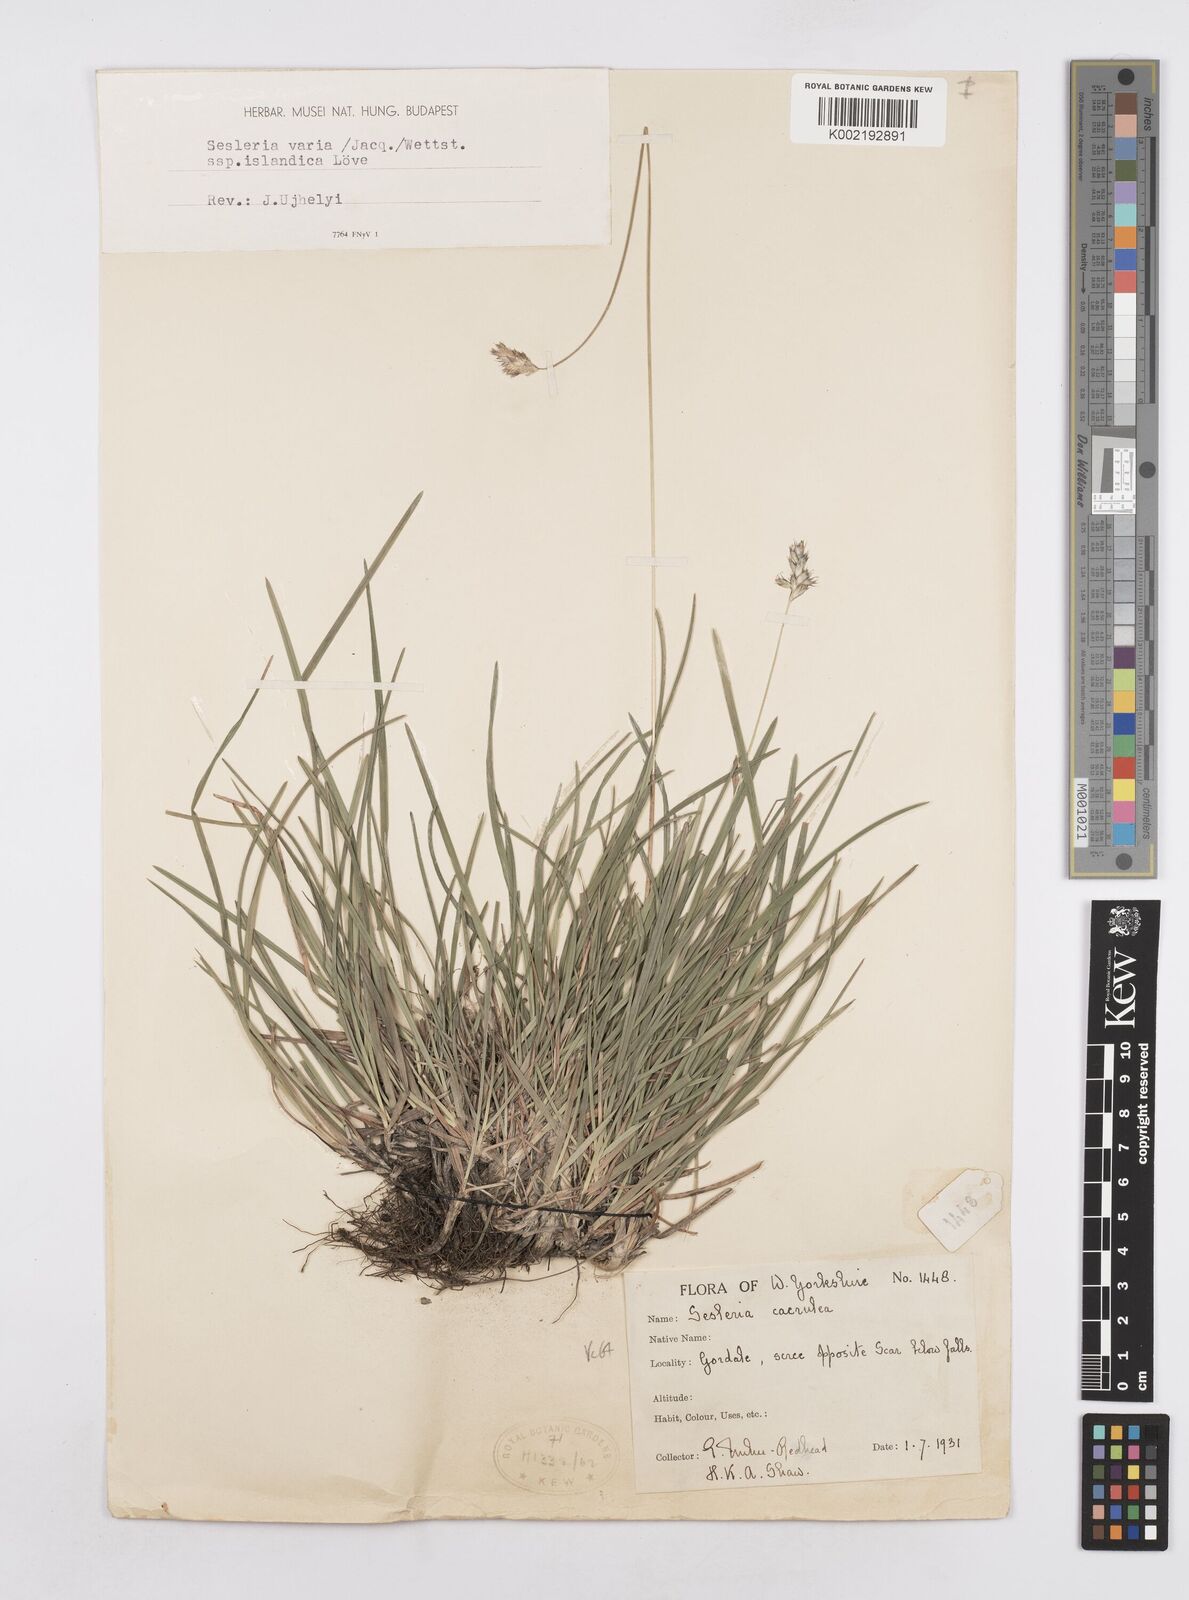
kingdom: Plantae
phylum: Tracheophyta
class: Liliopsida
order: Poales
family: Poaceae
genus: Sesleria
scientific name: Sesleria caerulea
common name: Blue moor-grass
